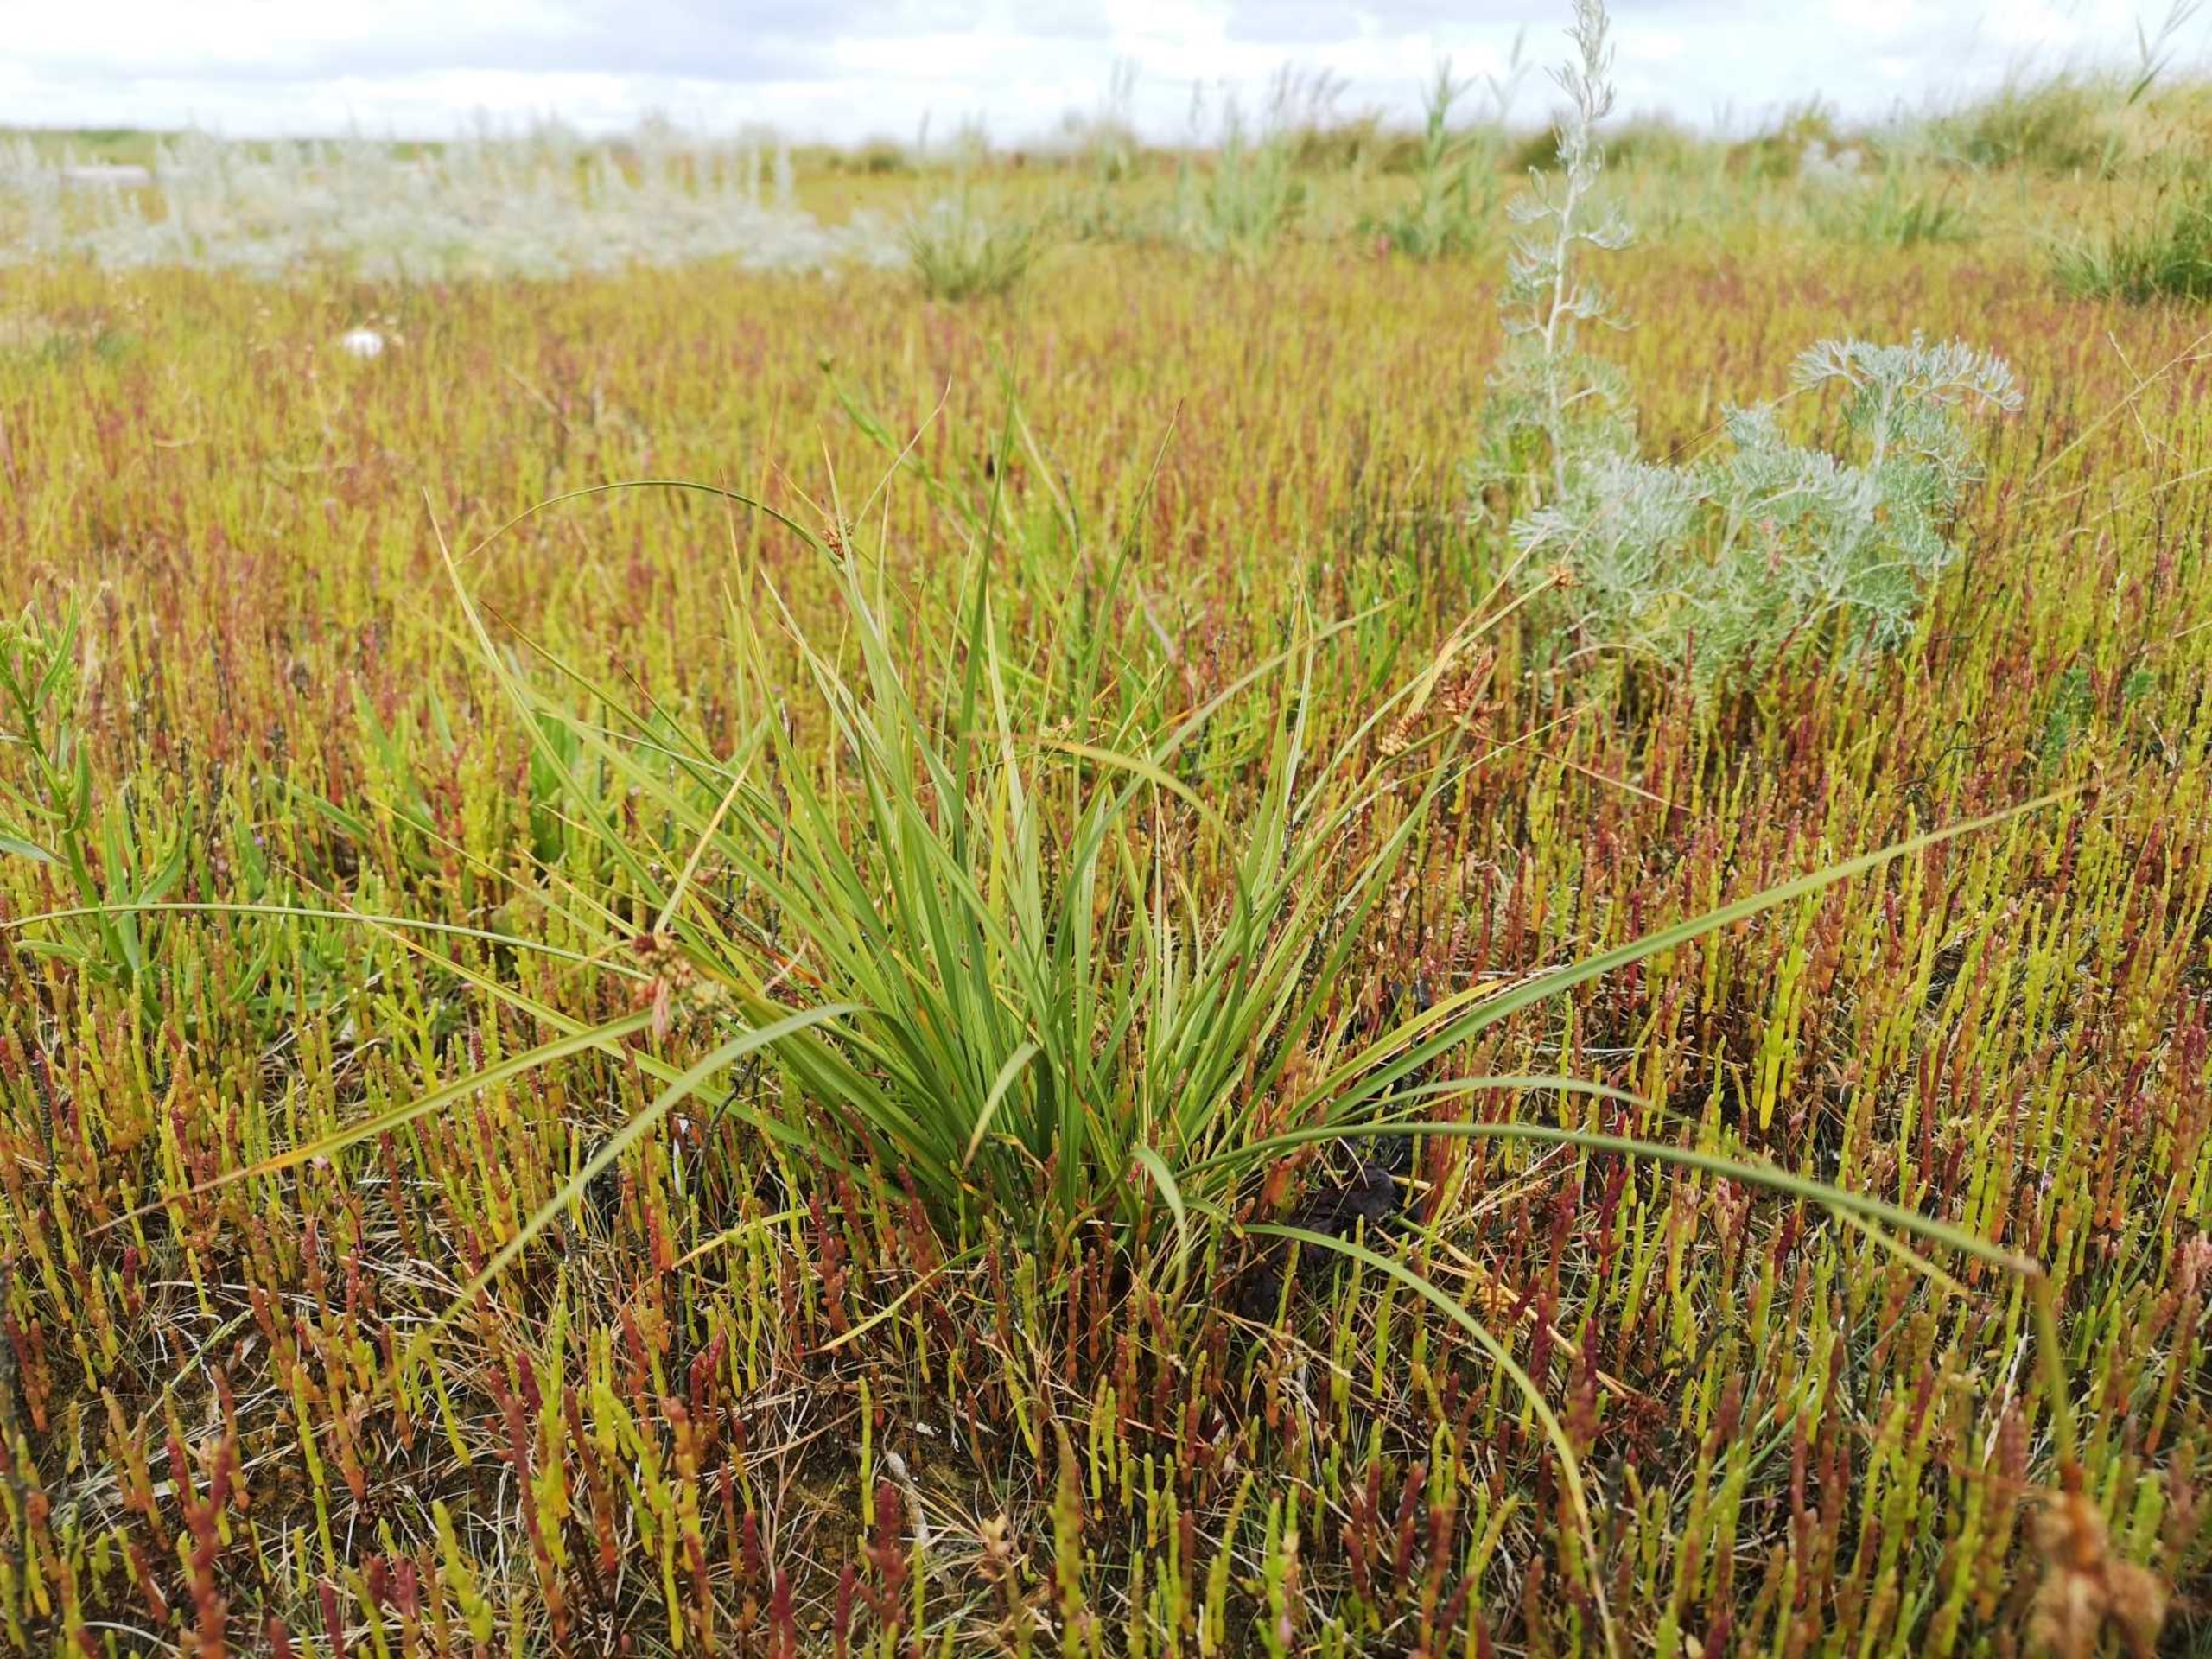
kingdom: Plantae
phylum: Tracheophyta
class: Liliopsida
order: Poales
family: Cyperaceae
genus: Carex
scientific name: Carex extensa
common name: Udspilet star
